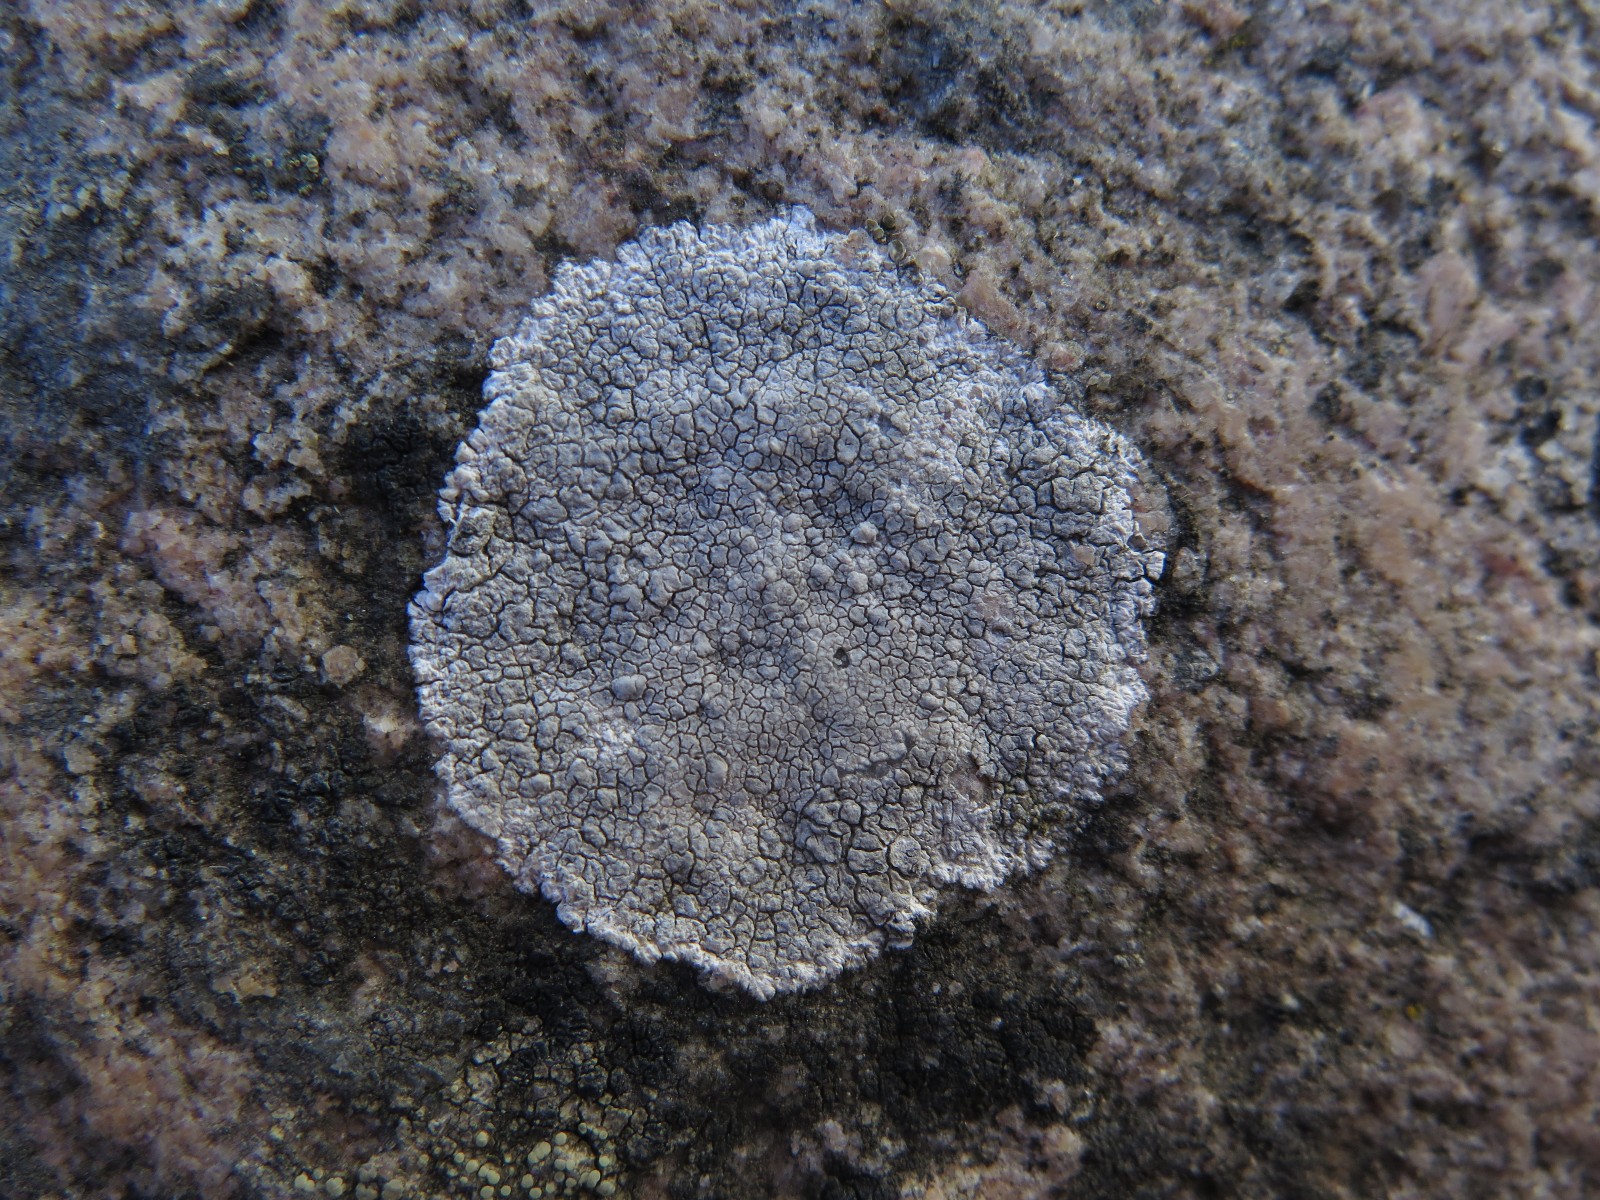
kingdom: Fungi
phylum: Ascomycota
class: Lecanoromycetes
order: Lecanorales
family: Lecanoraceae
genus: Glaucomaria
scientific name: Glaucomaria rupicola
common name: stengærde-kantskivelav
